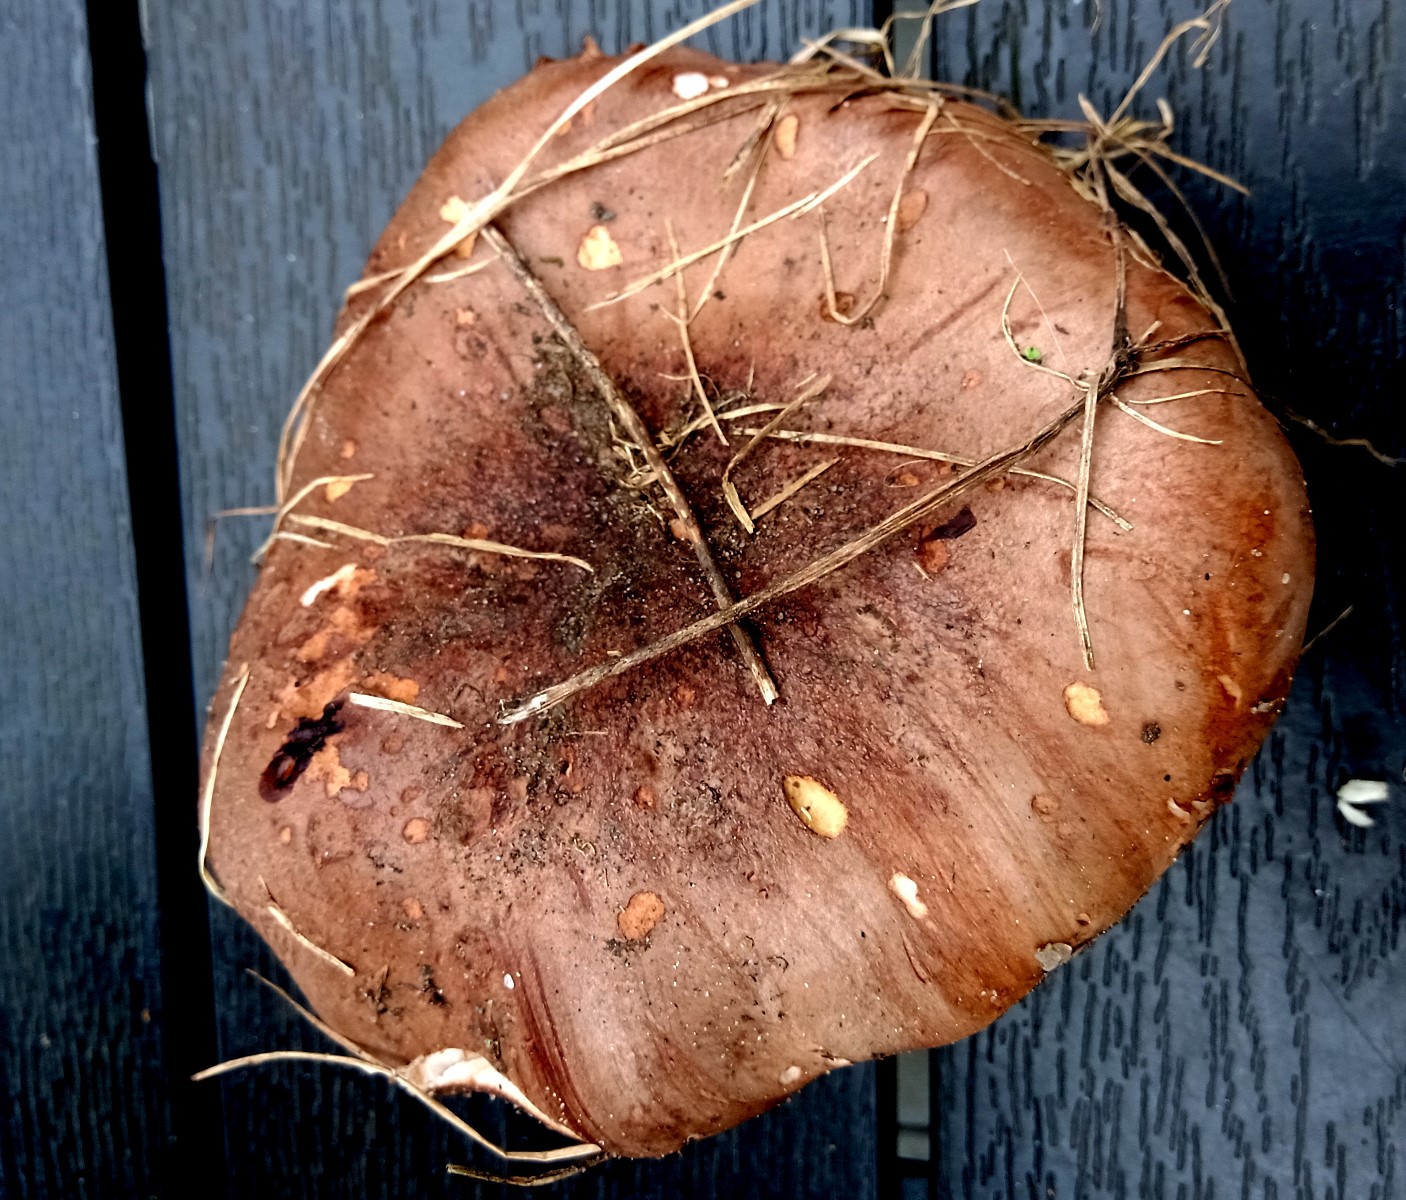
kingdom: Fungi
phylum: Basidiomycota
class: Agaricomycetes
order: Agaricales
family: Tricholomataceae
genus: Tricholoma
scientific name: Tricholoma populinum
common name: poppel-ridderhat
